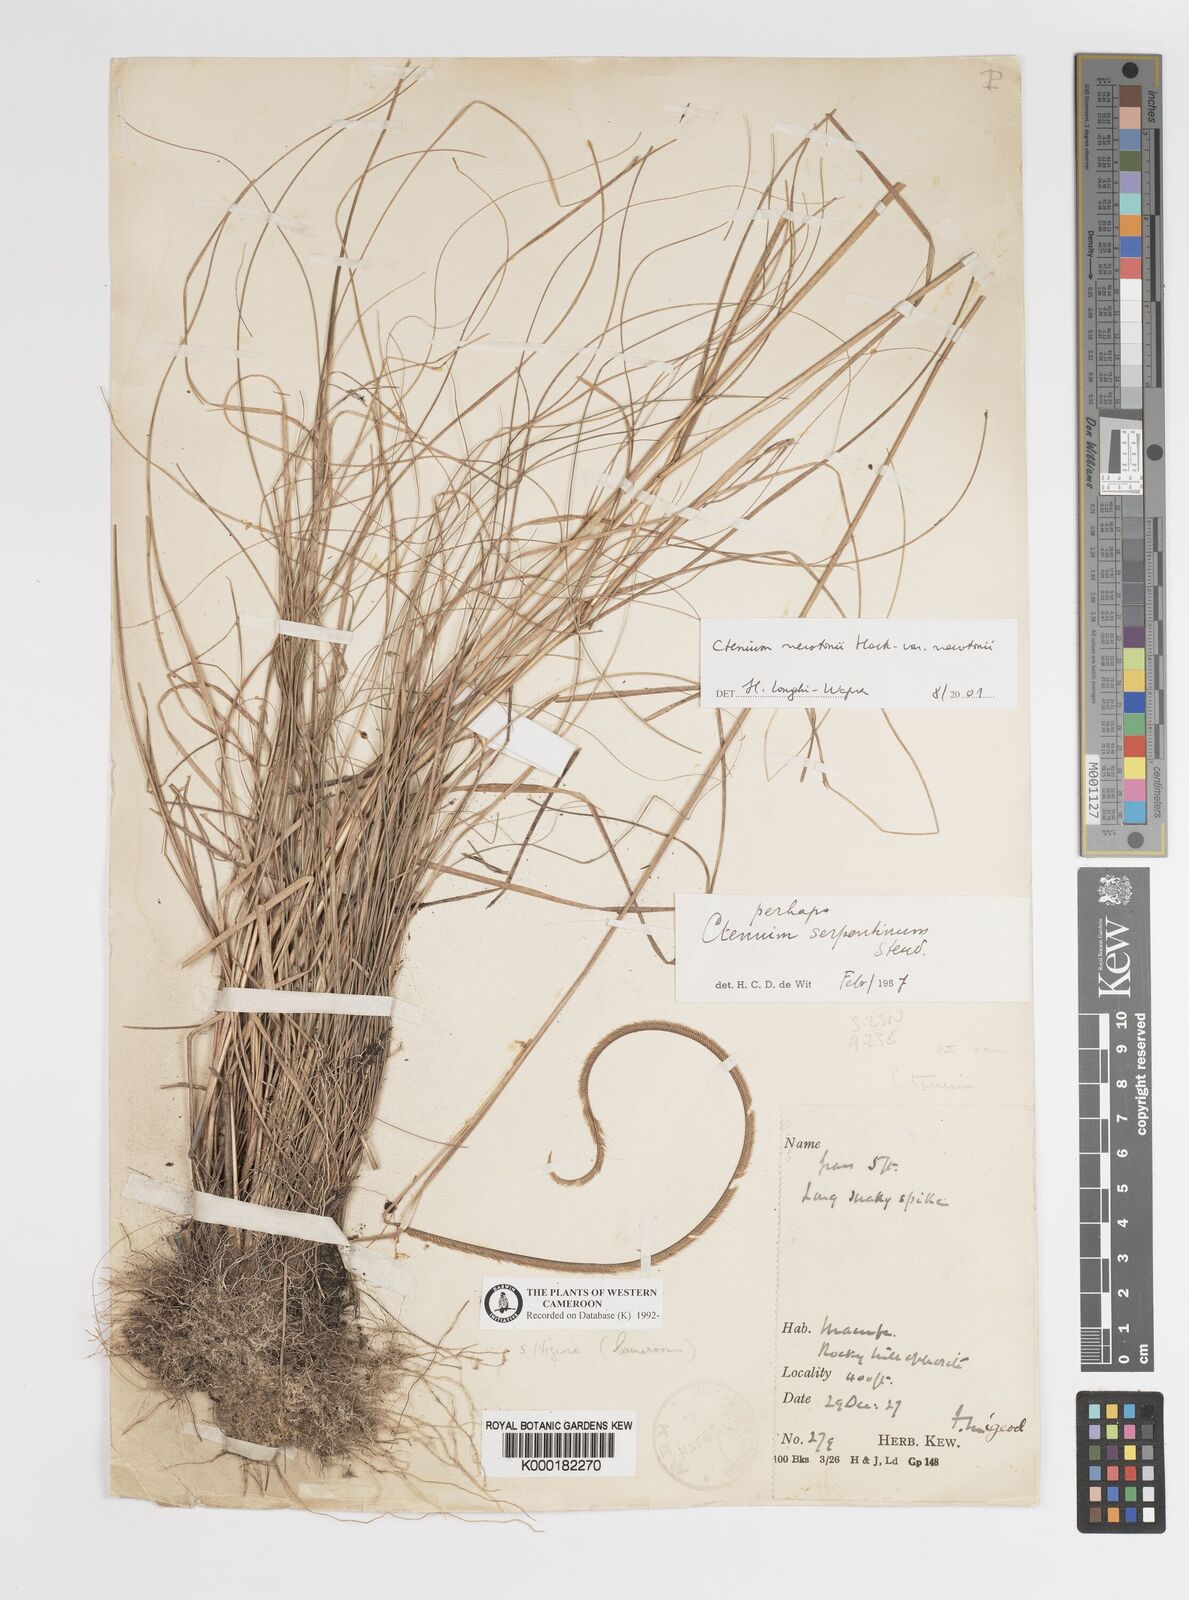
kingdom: Plantae
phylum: Tracheophyta
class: Liliopsida
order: Poales
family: Poaceae
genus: Ctenium
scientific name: Ctenium newtonii
